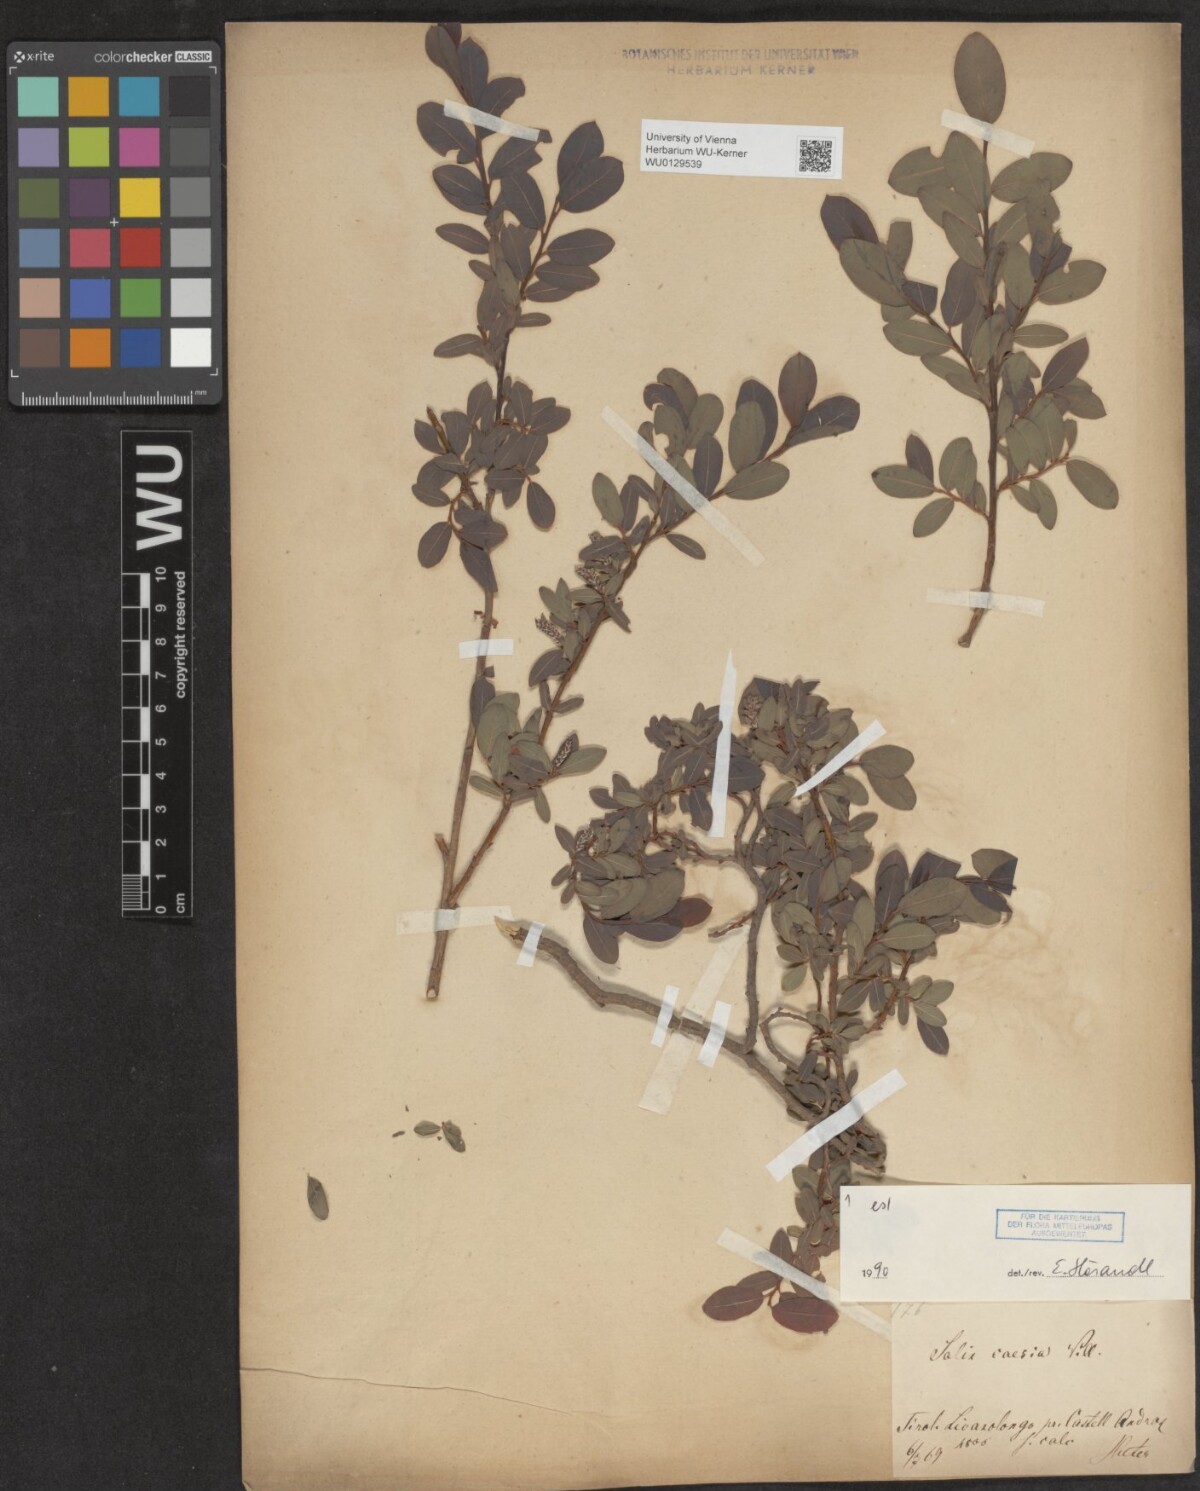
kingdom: Plantae
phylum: Tracheophyta
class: Magnoliopsida
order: Malpighiales
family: Salicaceae
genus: Salix
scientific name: Salix caesia
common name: Blue willow
